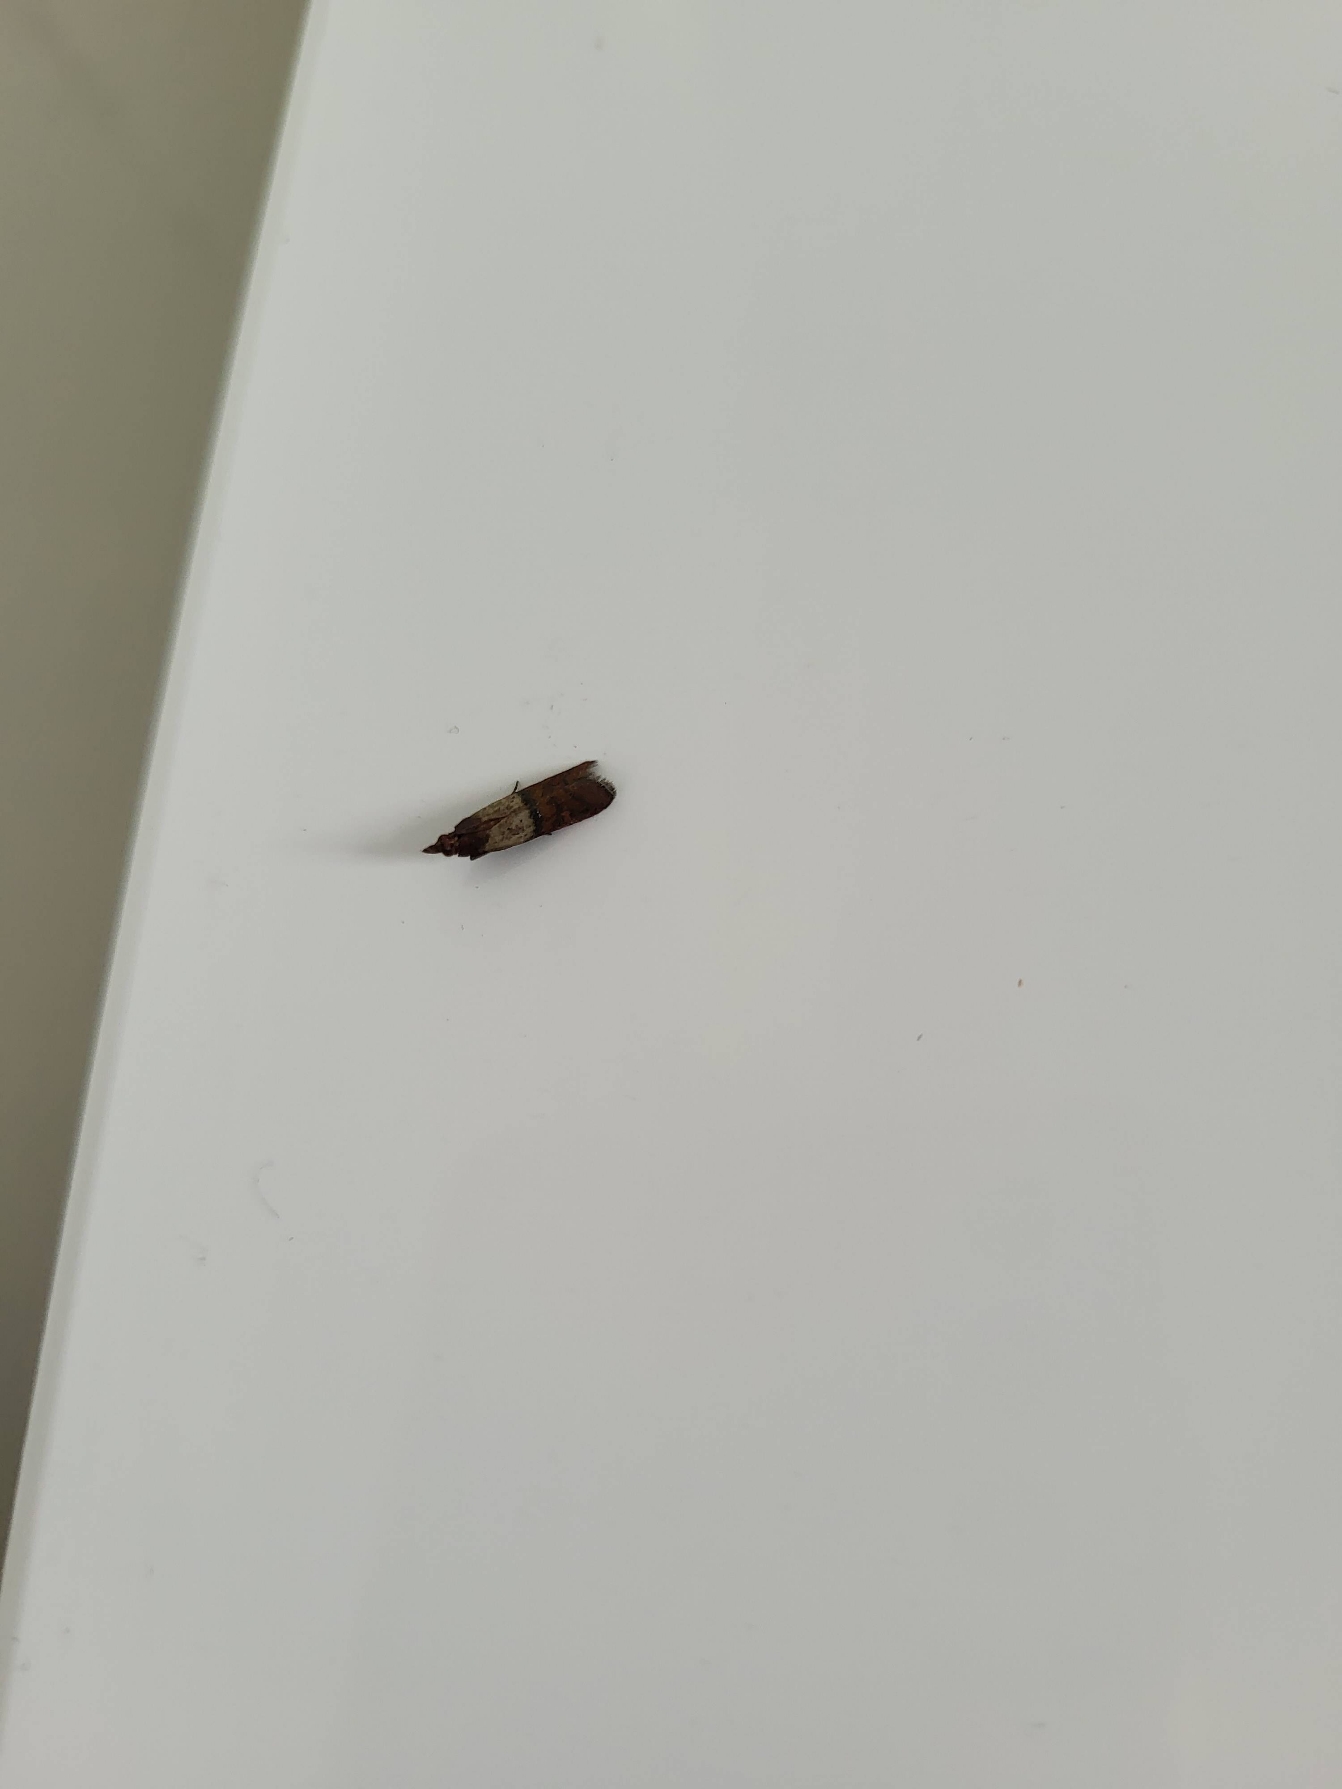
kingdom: Animalia
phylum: Arthropoda
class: Insecta
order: Lepidoptera
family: Pyralidae
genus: Plodia
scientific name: Plodia interpunctella
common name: Tofarvet frømøl
